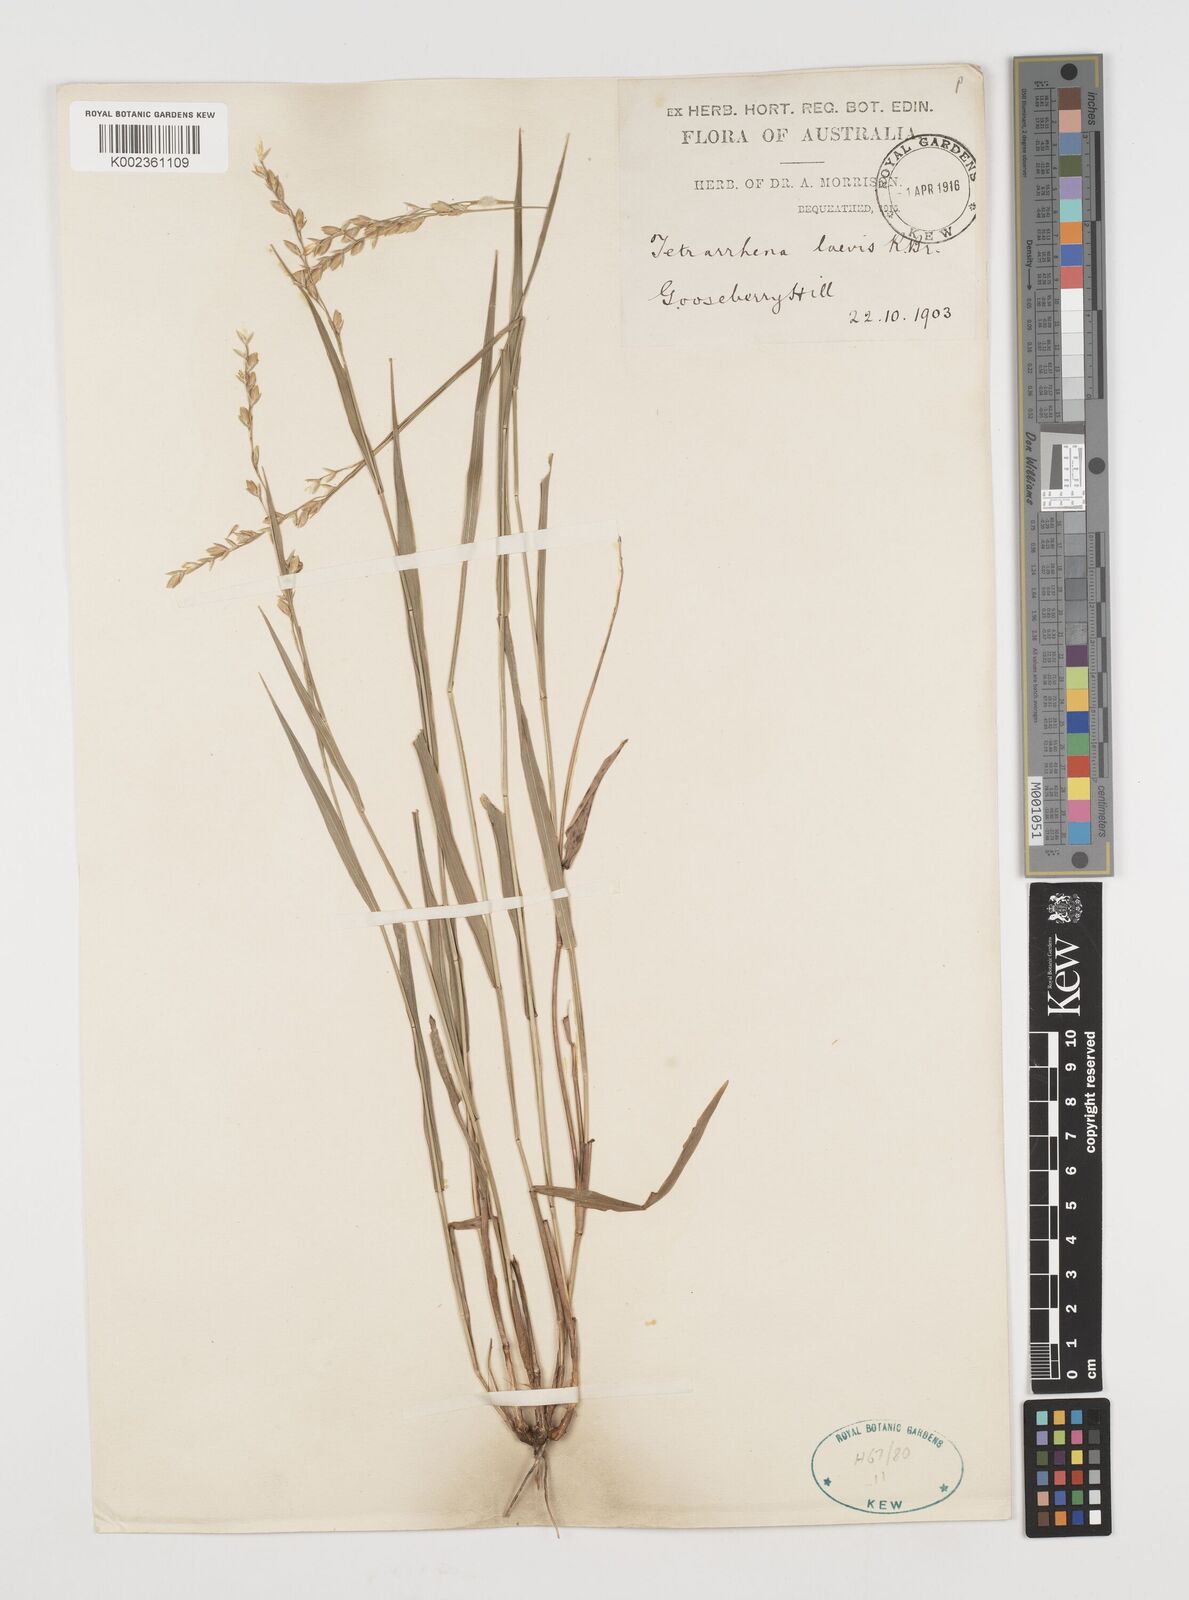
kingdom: Plantae
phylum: Tracheophyta
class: Liliopsida
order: Poales
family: Poaceae
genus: Tetrarrhena
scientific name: Tetrarrhena laevis
